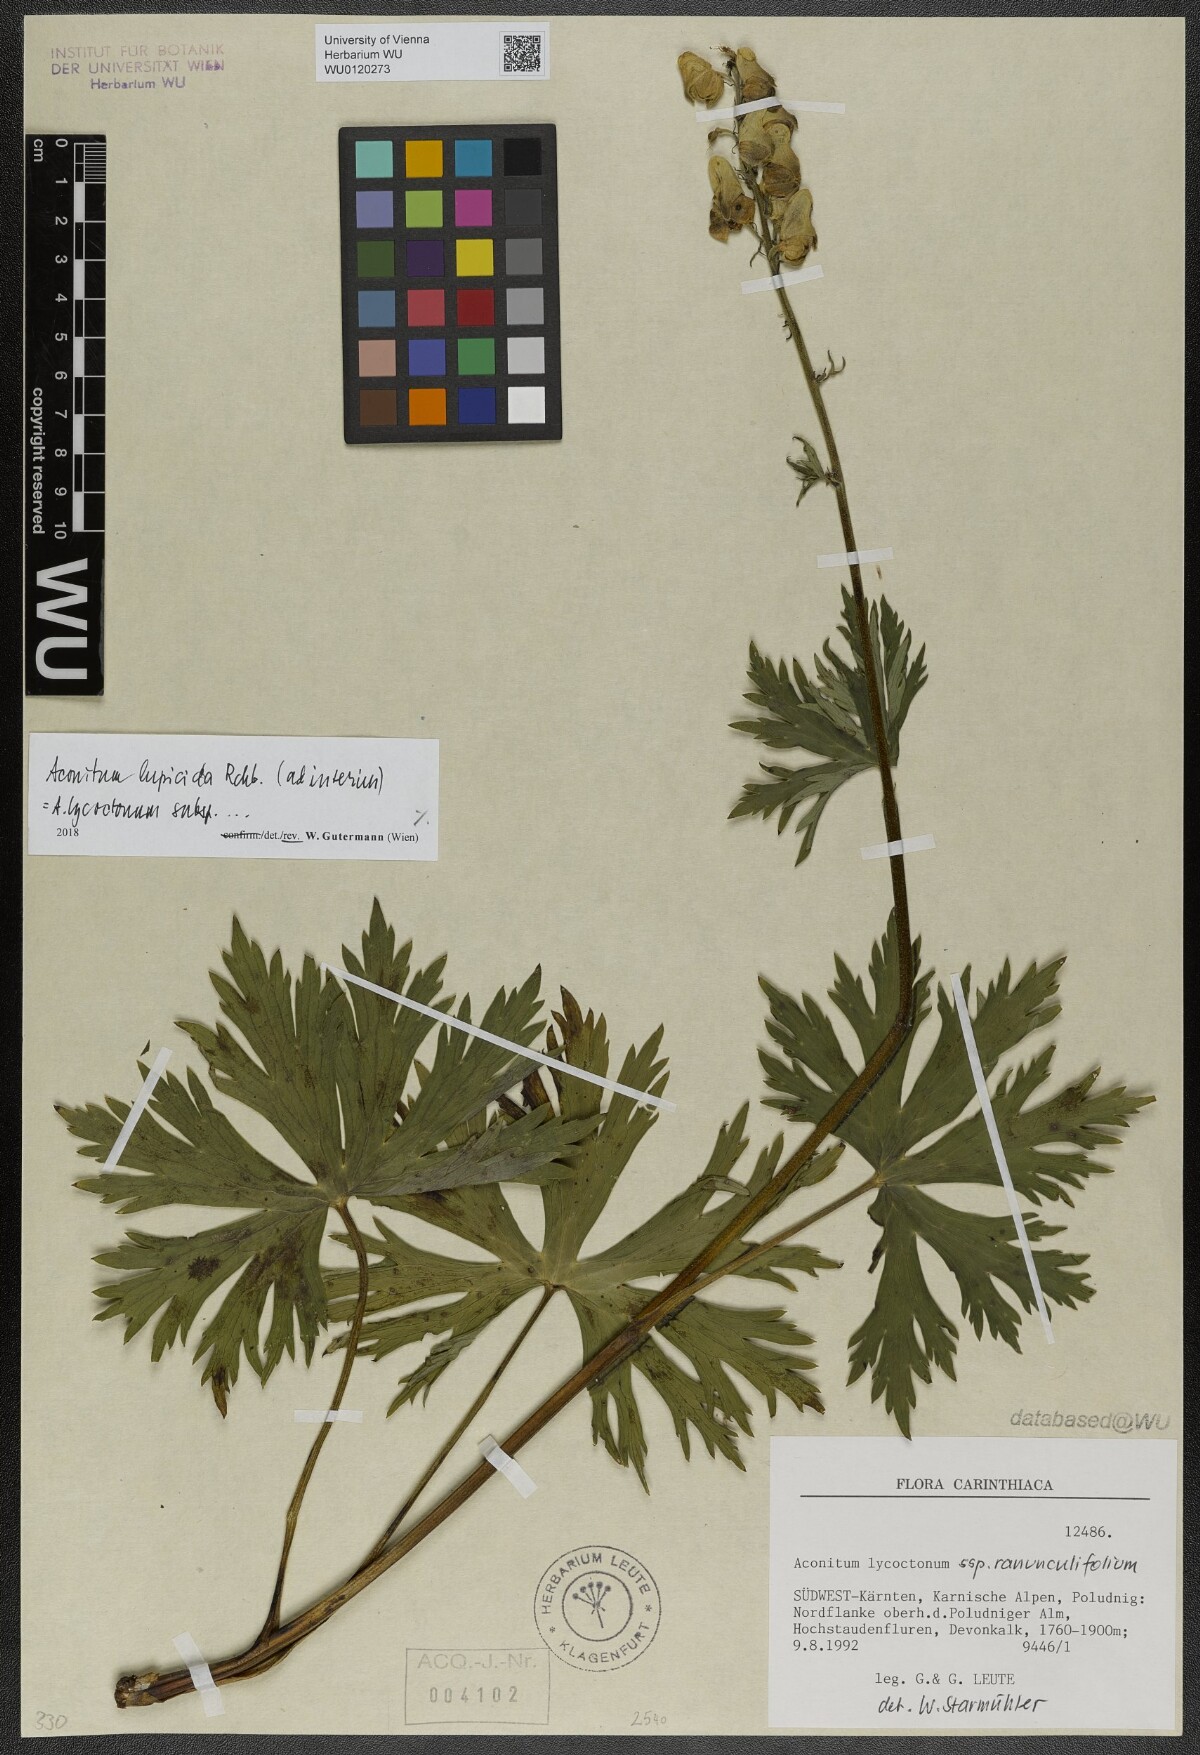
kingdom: Plantae
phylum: Tracheophyta
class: Magnoliopsida
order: Ranunculales
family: Ranunculaceae
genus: Aconitum
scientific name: Aconitum lycoctonum
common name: Wolf's-bane
